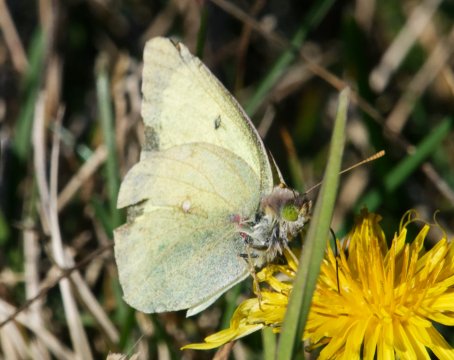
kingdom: Animalia
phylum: Arthropoda
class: Insecta
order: Lepidoptera
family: Pieridae
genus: Colias
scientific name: Colias philodice
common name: Clouded Sulphur
